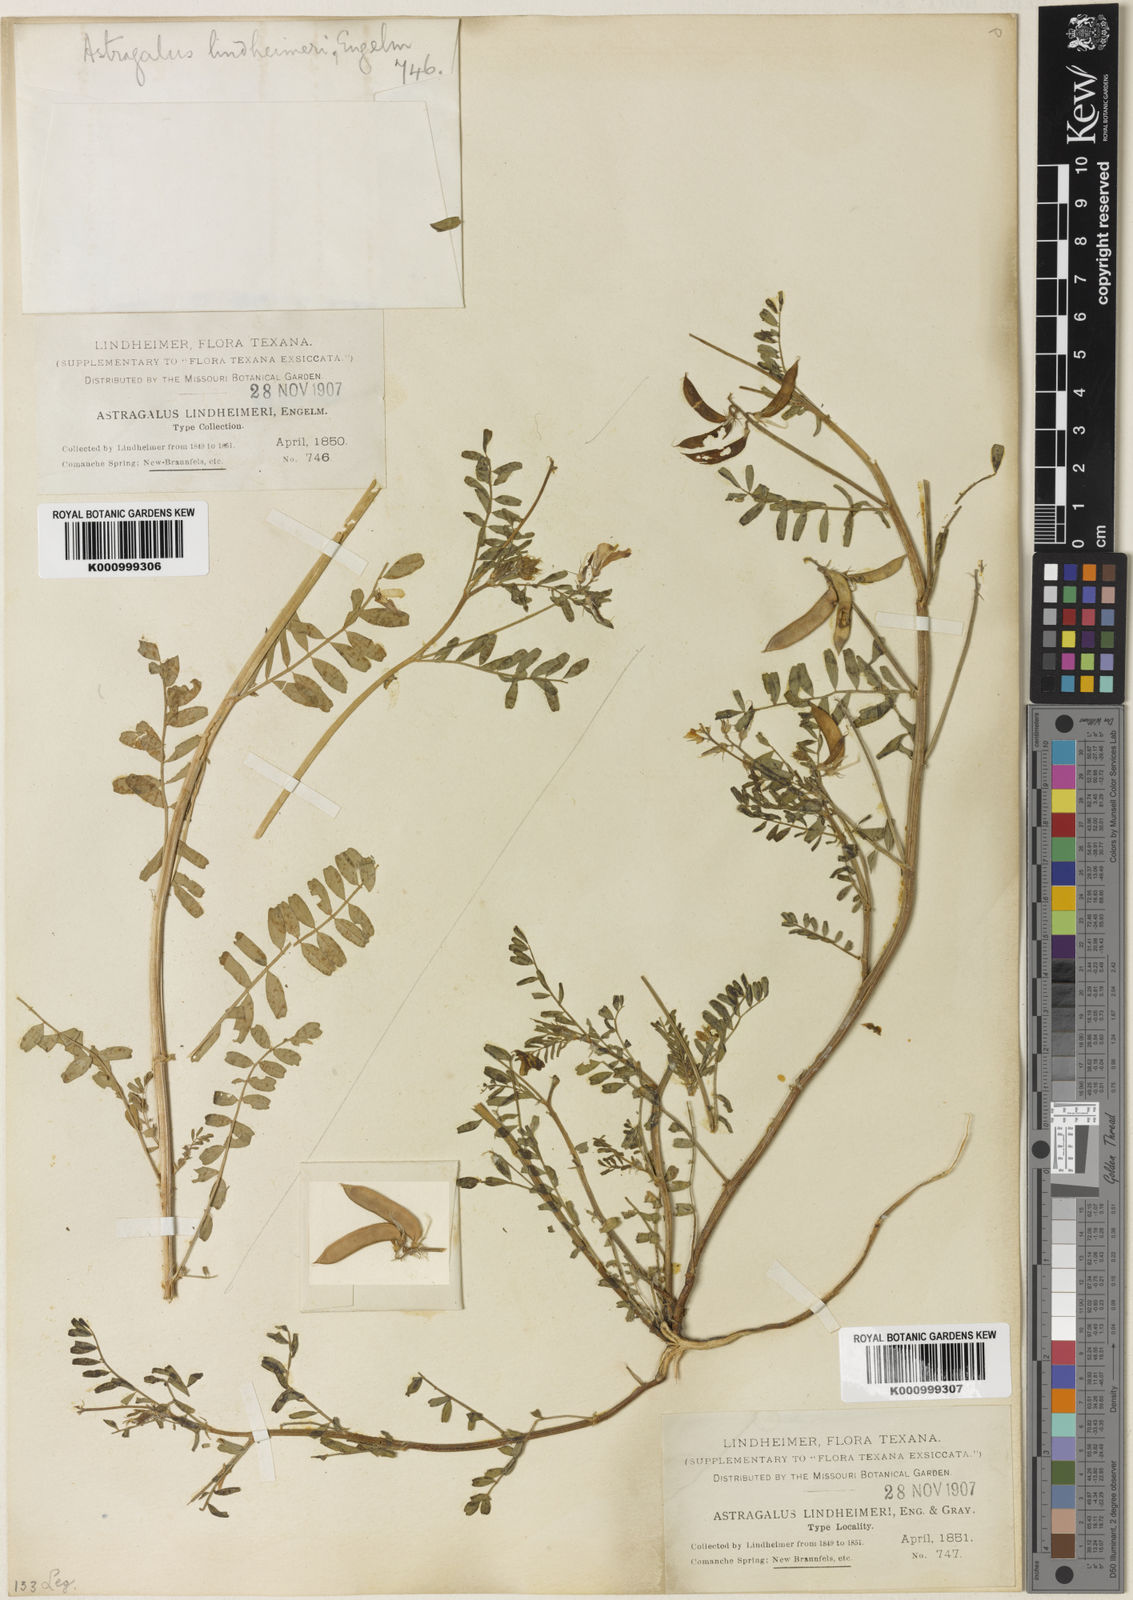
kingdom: Plantae
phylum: Tracheophyta
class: Magnoliopsida
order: Fabales
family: Fabaceae
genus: Astragalus
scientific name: Astragalus
